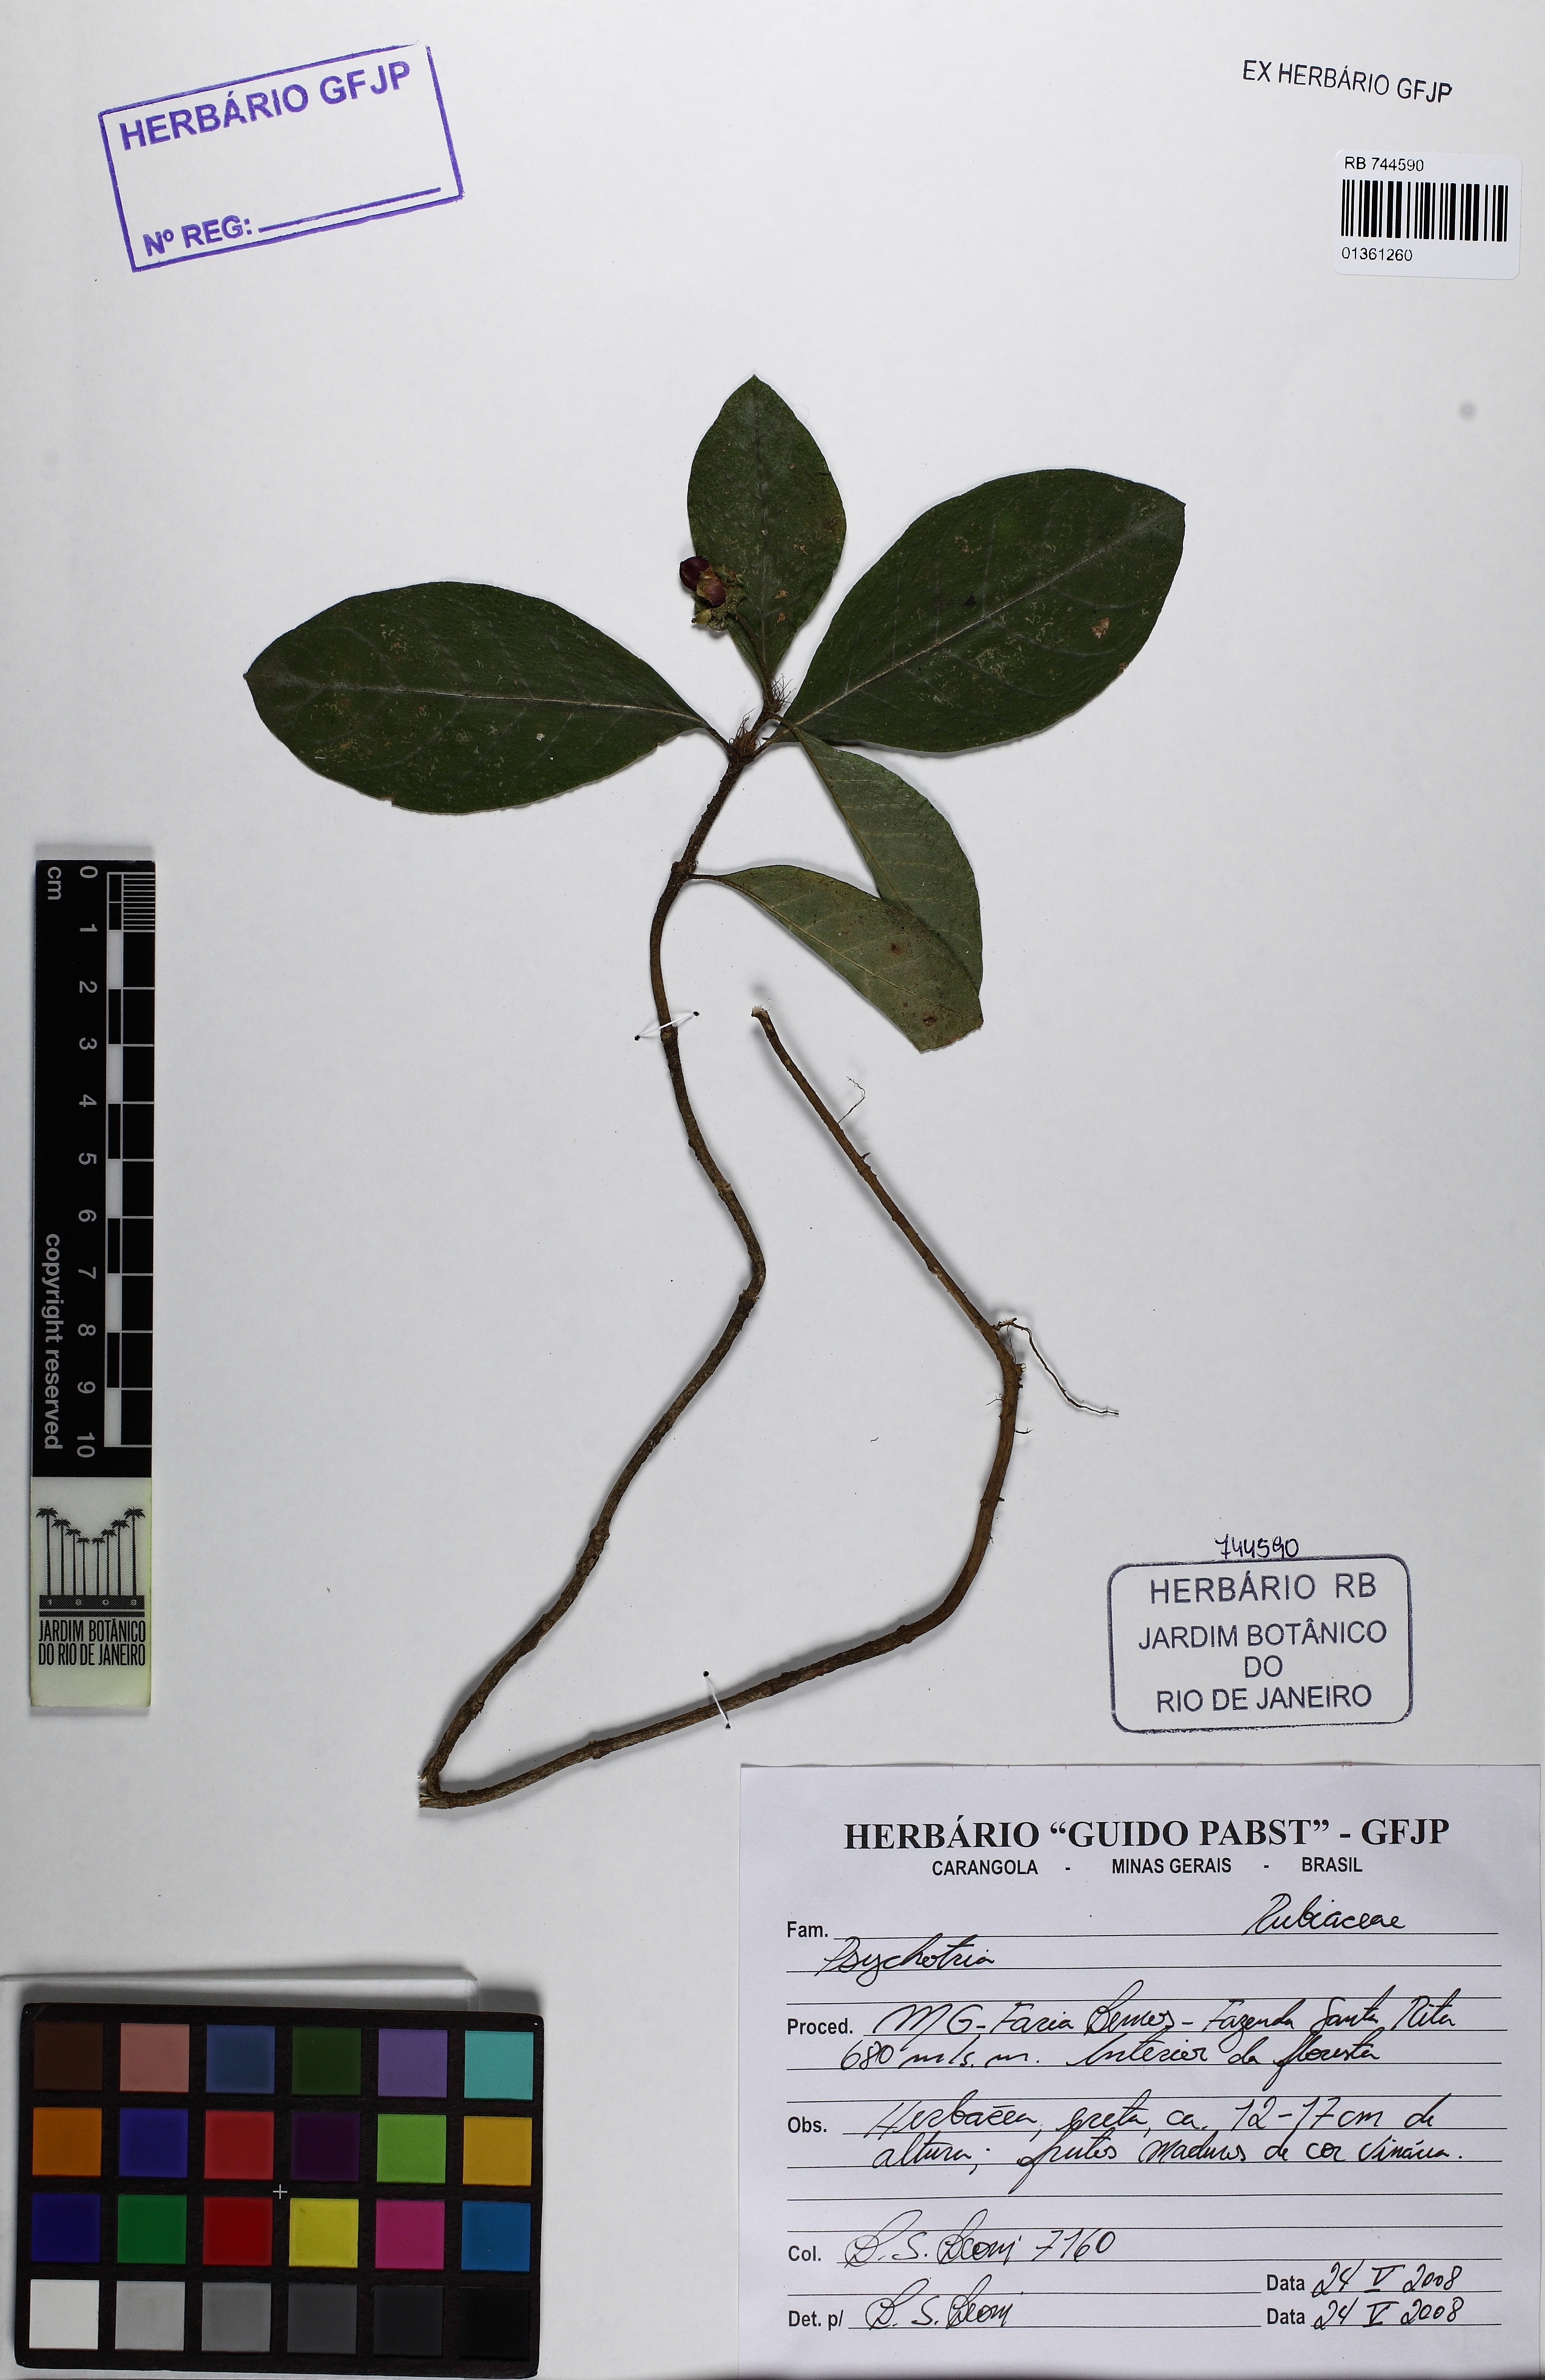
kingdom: Plantae
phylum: Tracheophyta
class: Magnoliopsida
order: Gentianales
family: Rubiaceae
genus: Carapichea
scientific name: Carapichea ipecacuanha
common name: Ipecac
